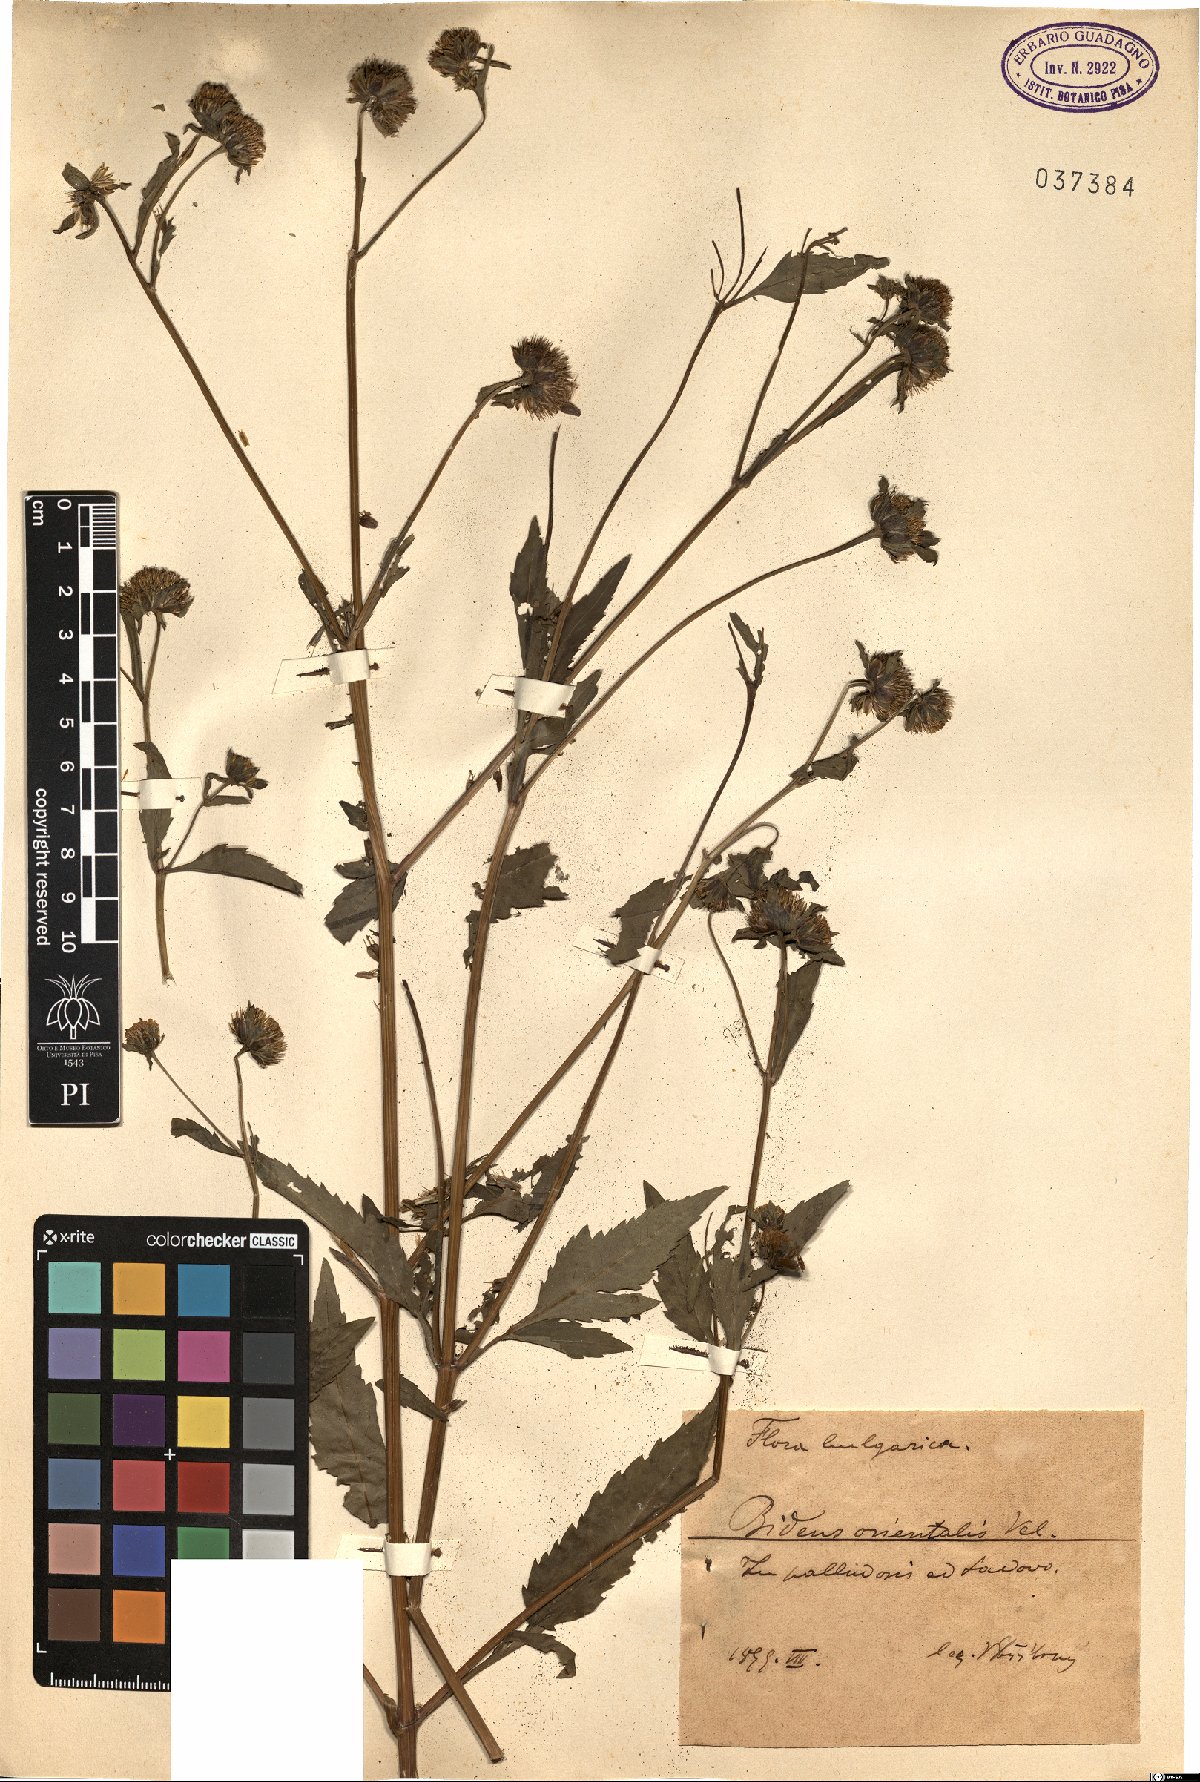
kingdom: Plantae
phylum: Tracheophyta
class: Magnoliopsida
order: Asterales
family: Asteraceae
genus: Bidens
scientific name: Bidens tripartita
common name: Trifid bur-marigold
